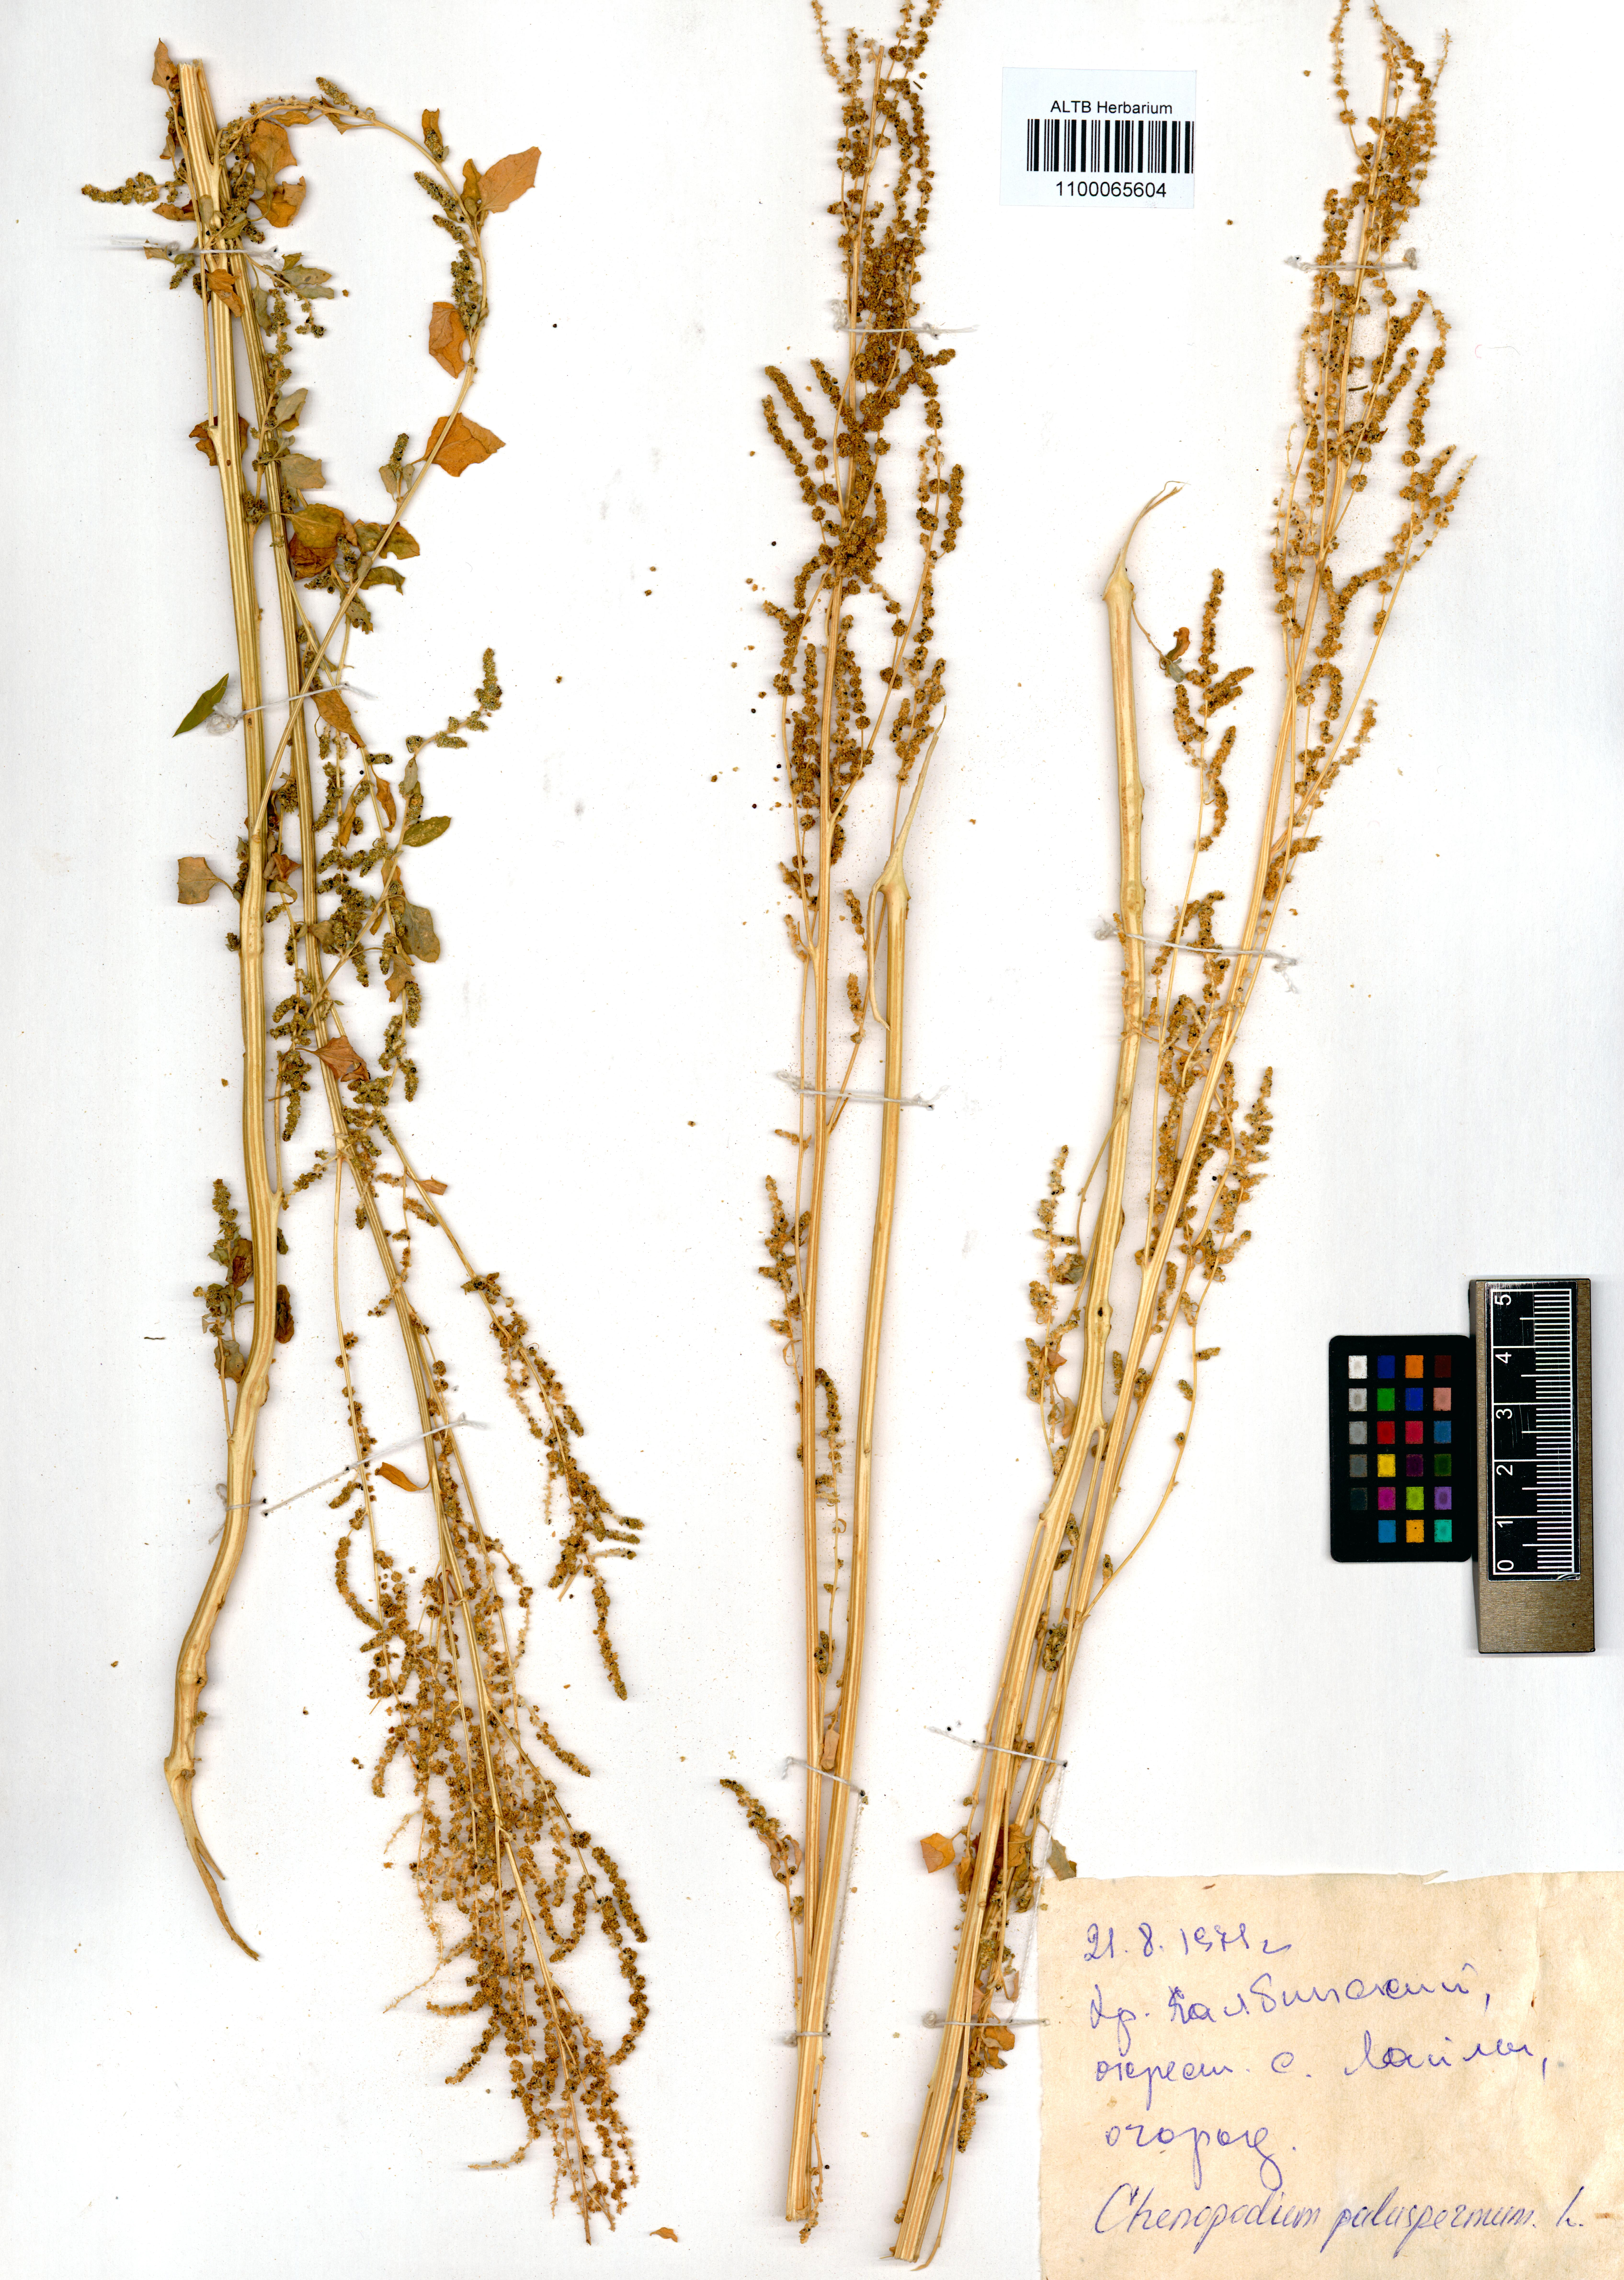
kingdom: Plantae
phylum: Tracheophyta
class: Magnoliopsida
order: Caryophyllales
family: Amaranthaceae
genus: Lipandra
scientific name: Lipandra polysperma
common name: Many-seed goosefoot
